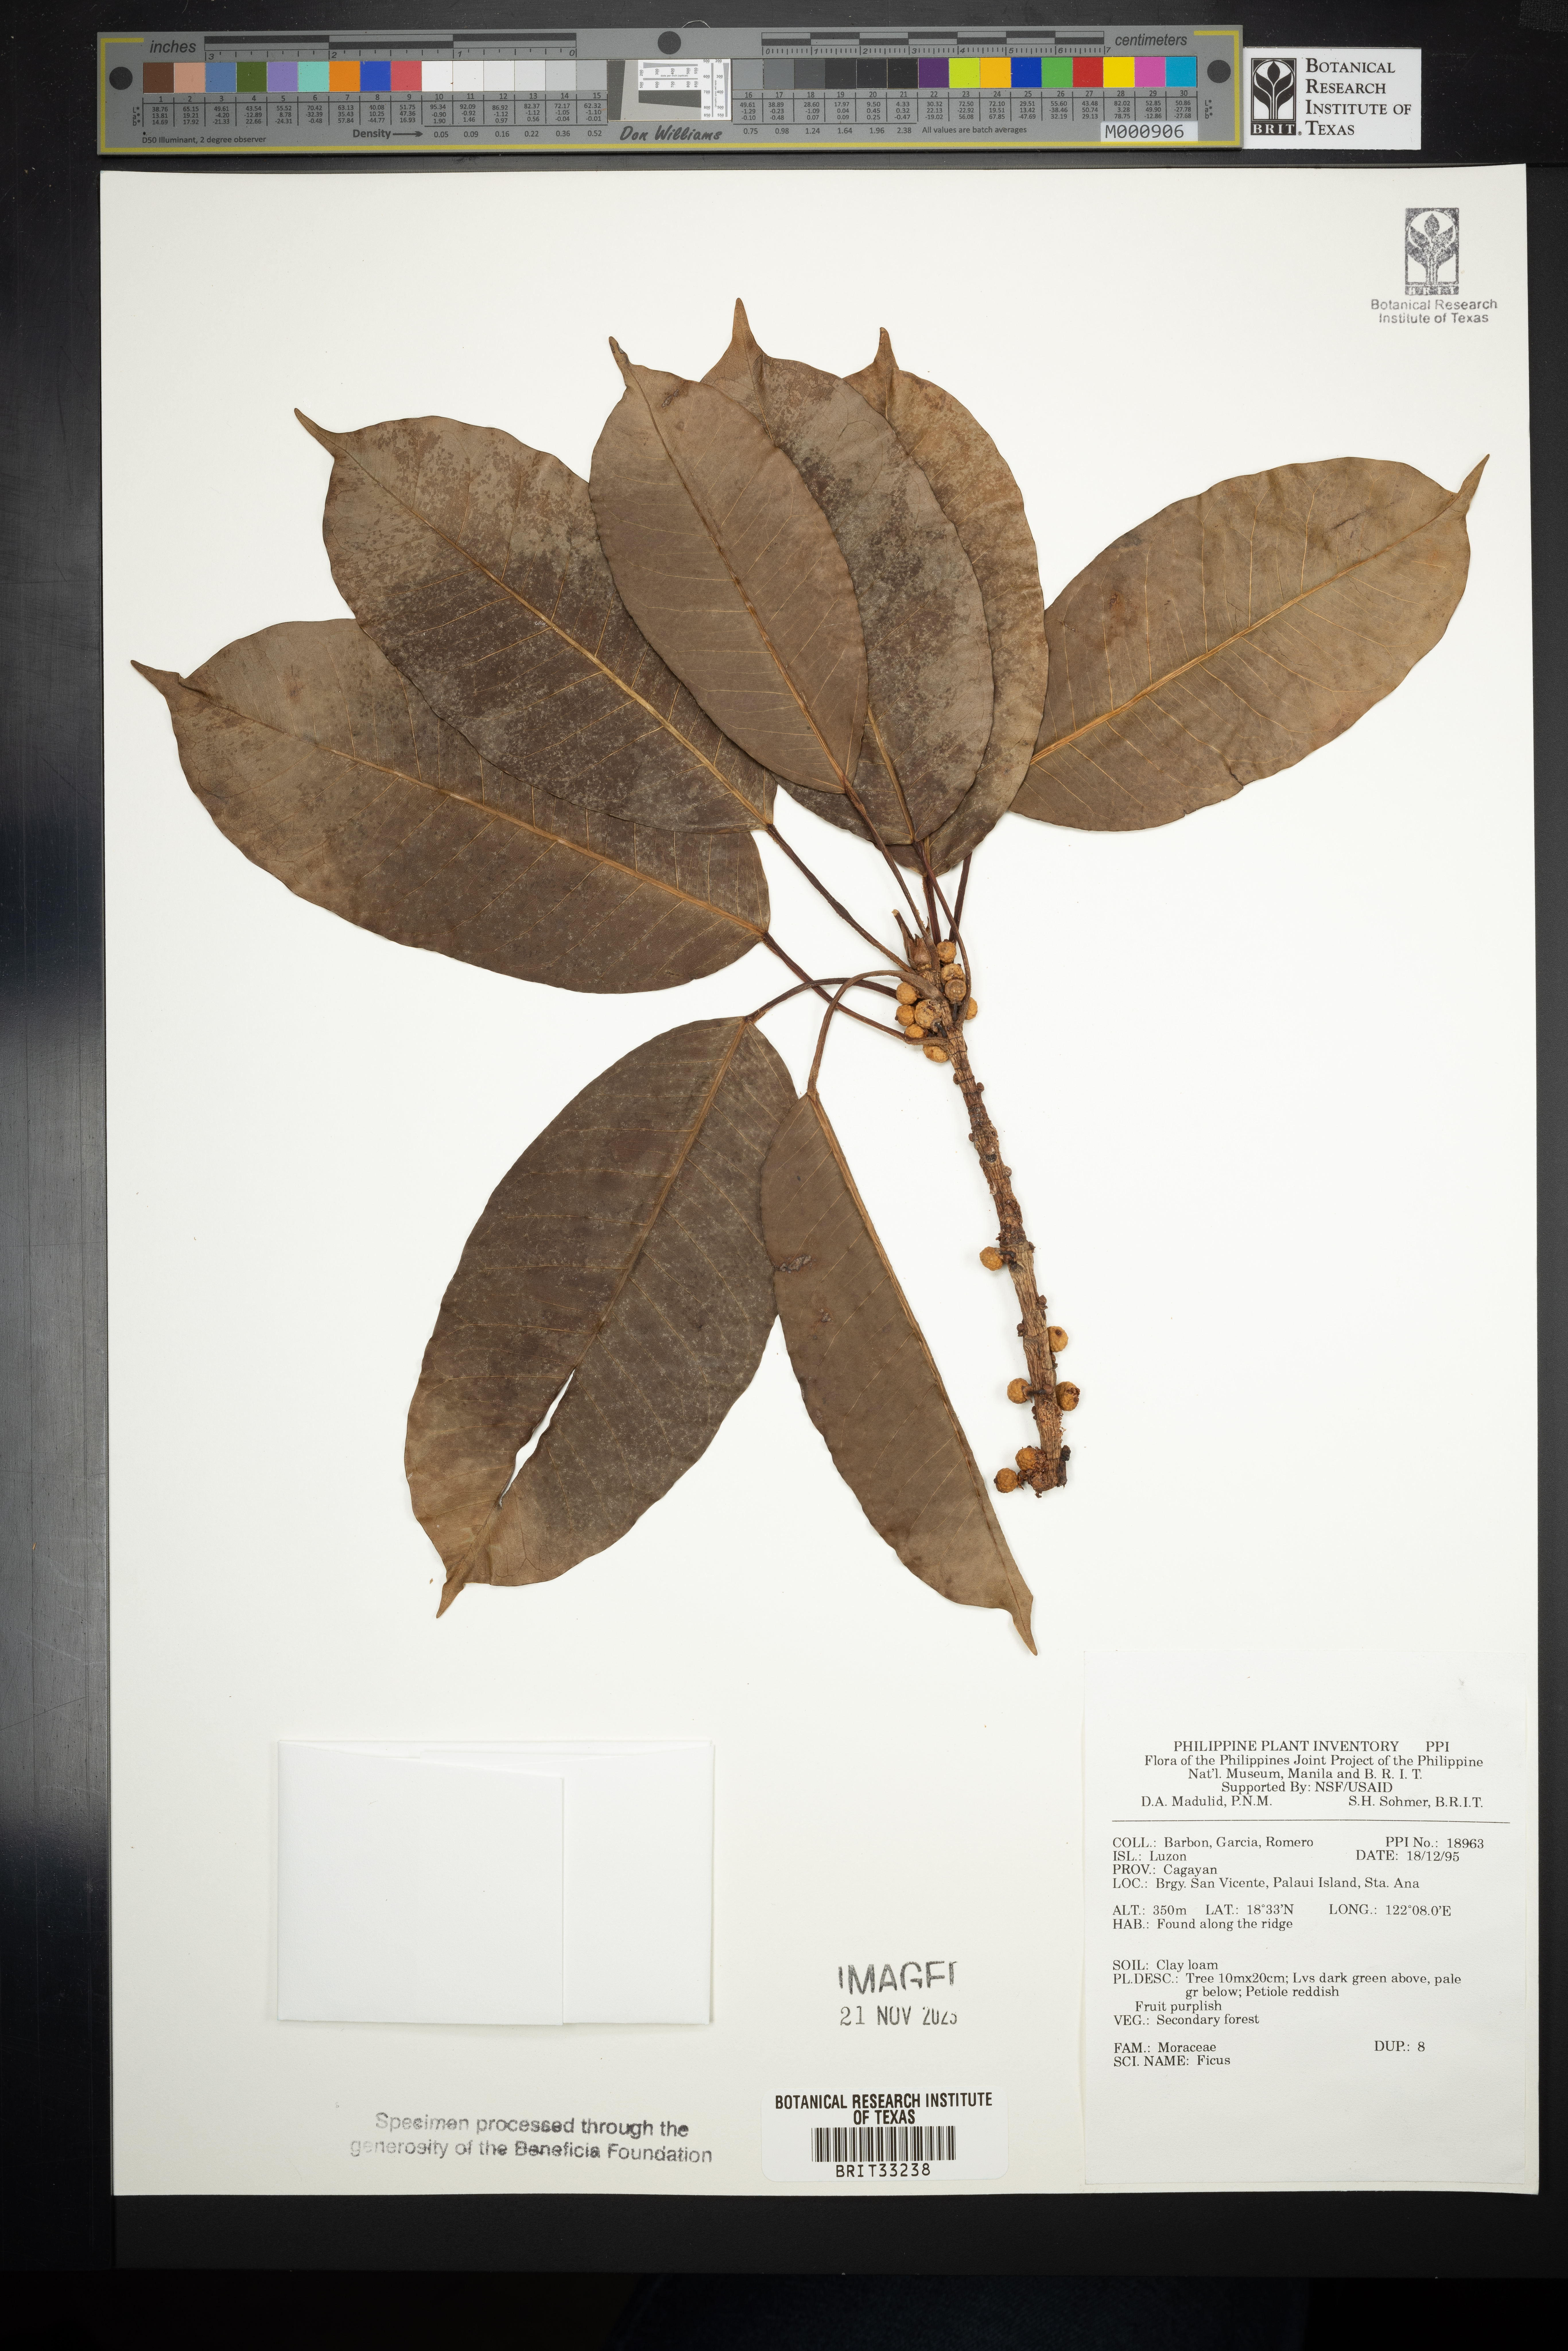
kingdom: Plantae
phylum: Tracheophyta
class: Magnoliopsida
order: Rosales
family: Moraceae
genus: Ficus
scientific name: Ficus
